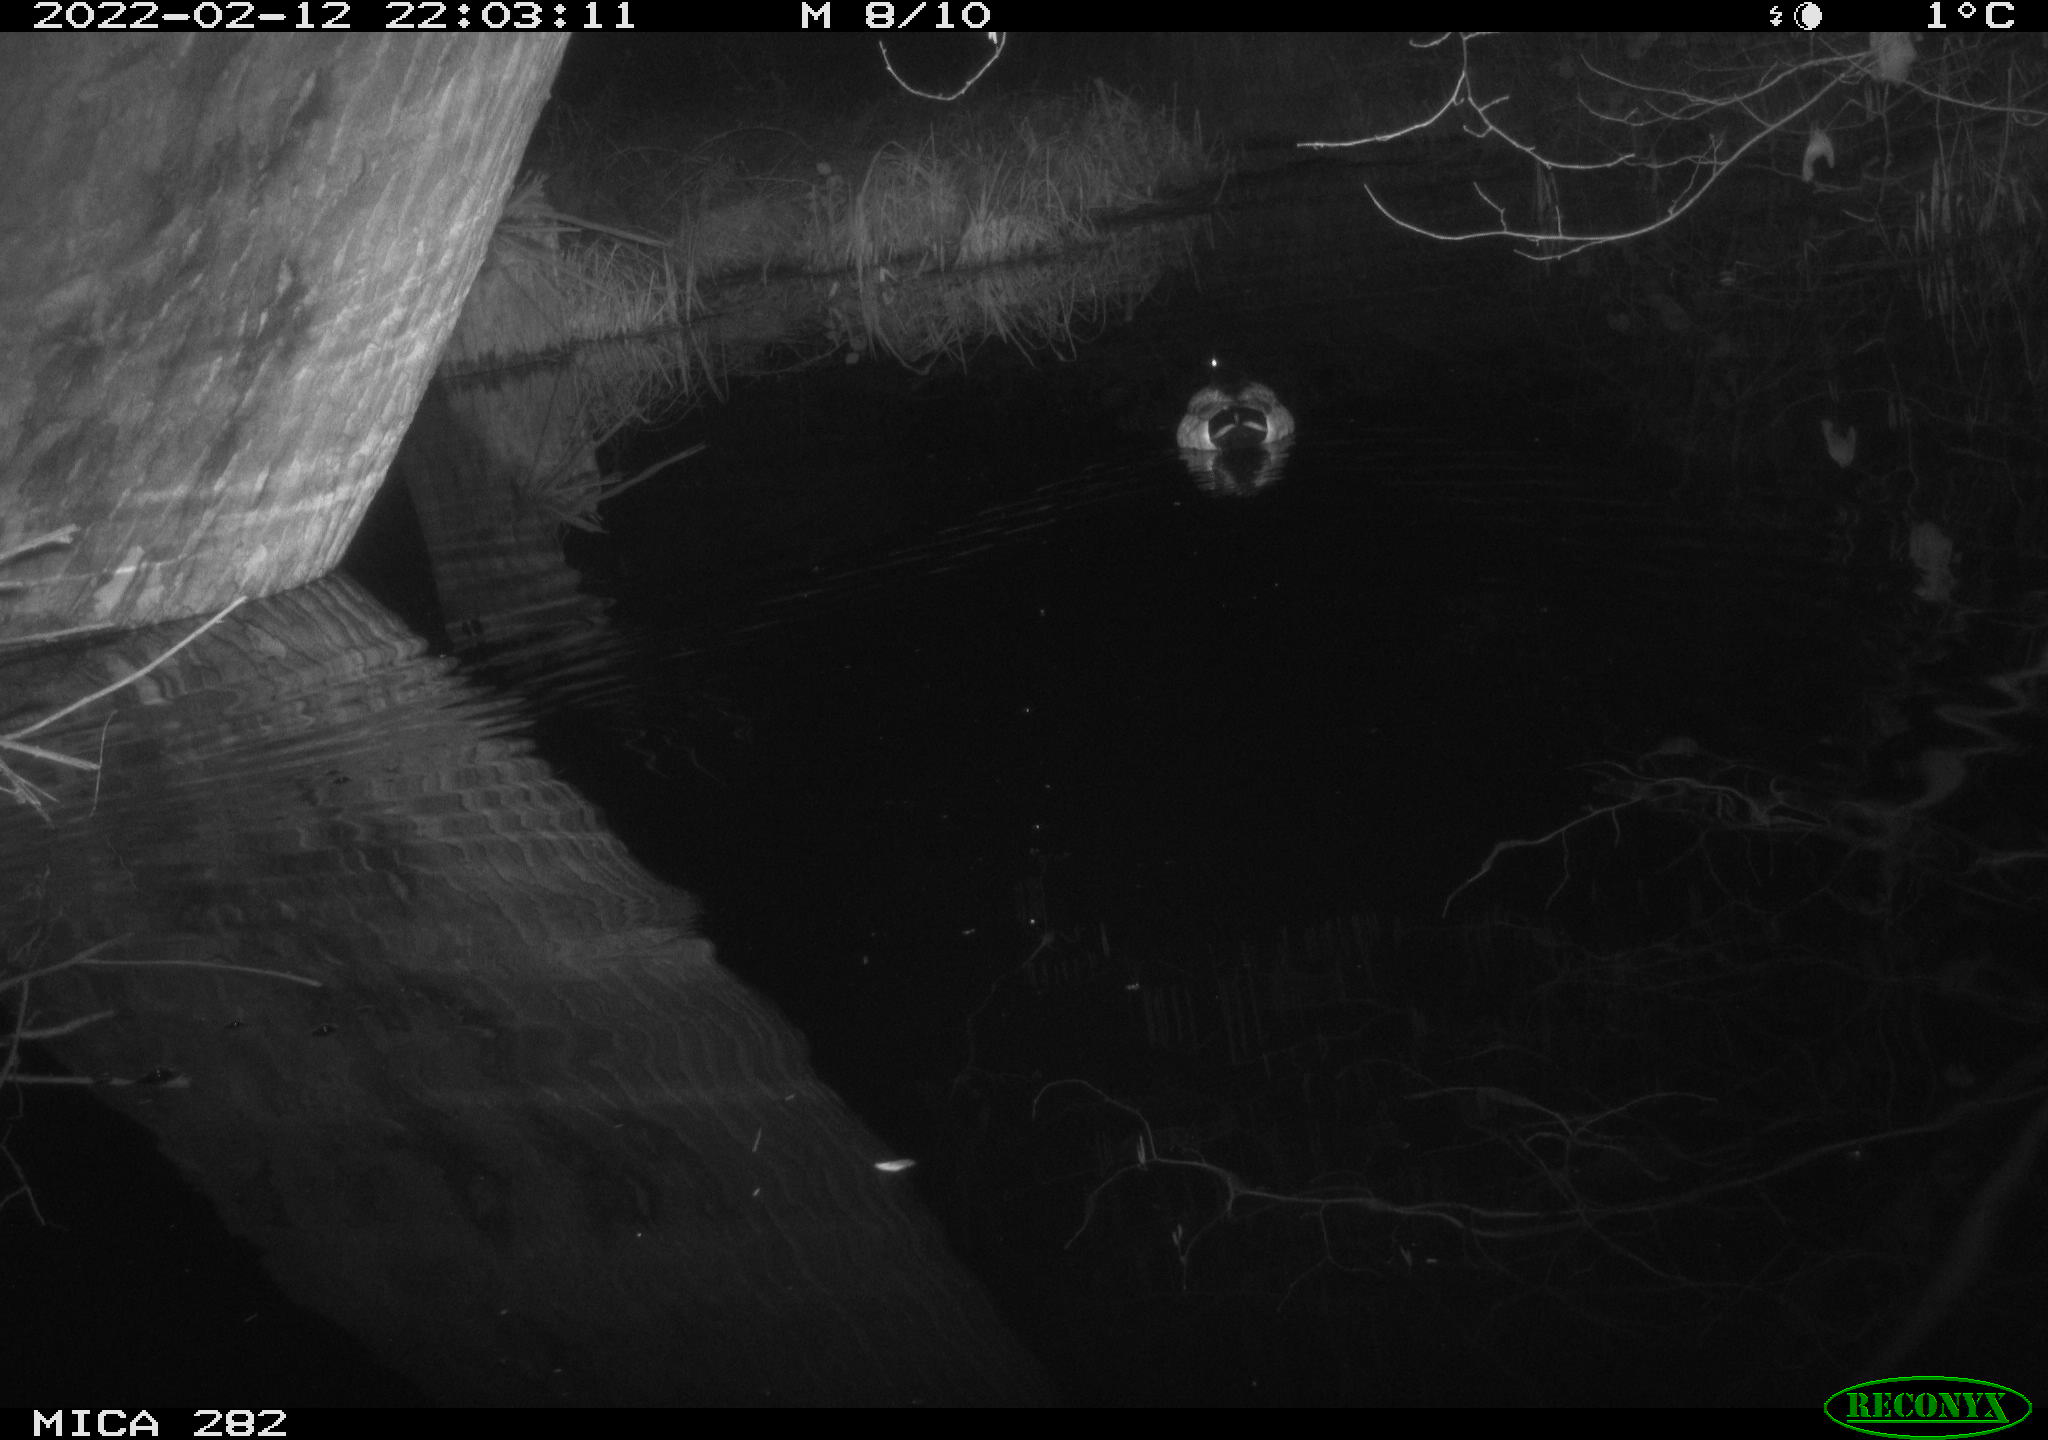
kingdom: Animalia
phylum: Chordata
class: Aves
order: Anseriformes
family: Anatidae
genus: Anas
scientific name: Anas platyrhynchos
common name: Mallard
